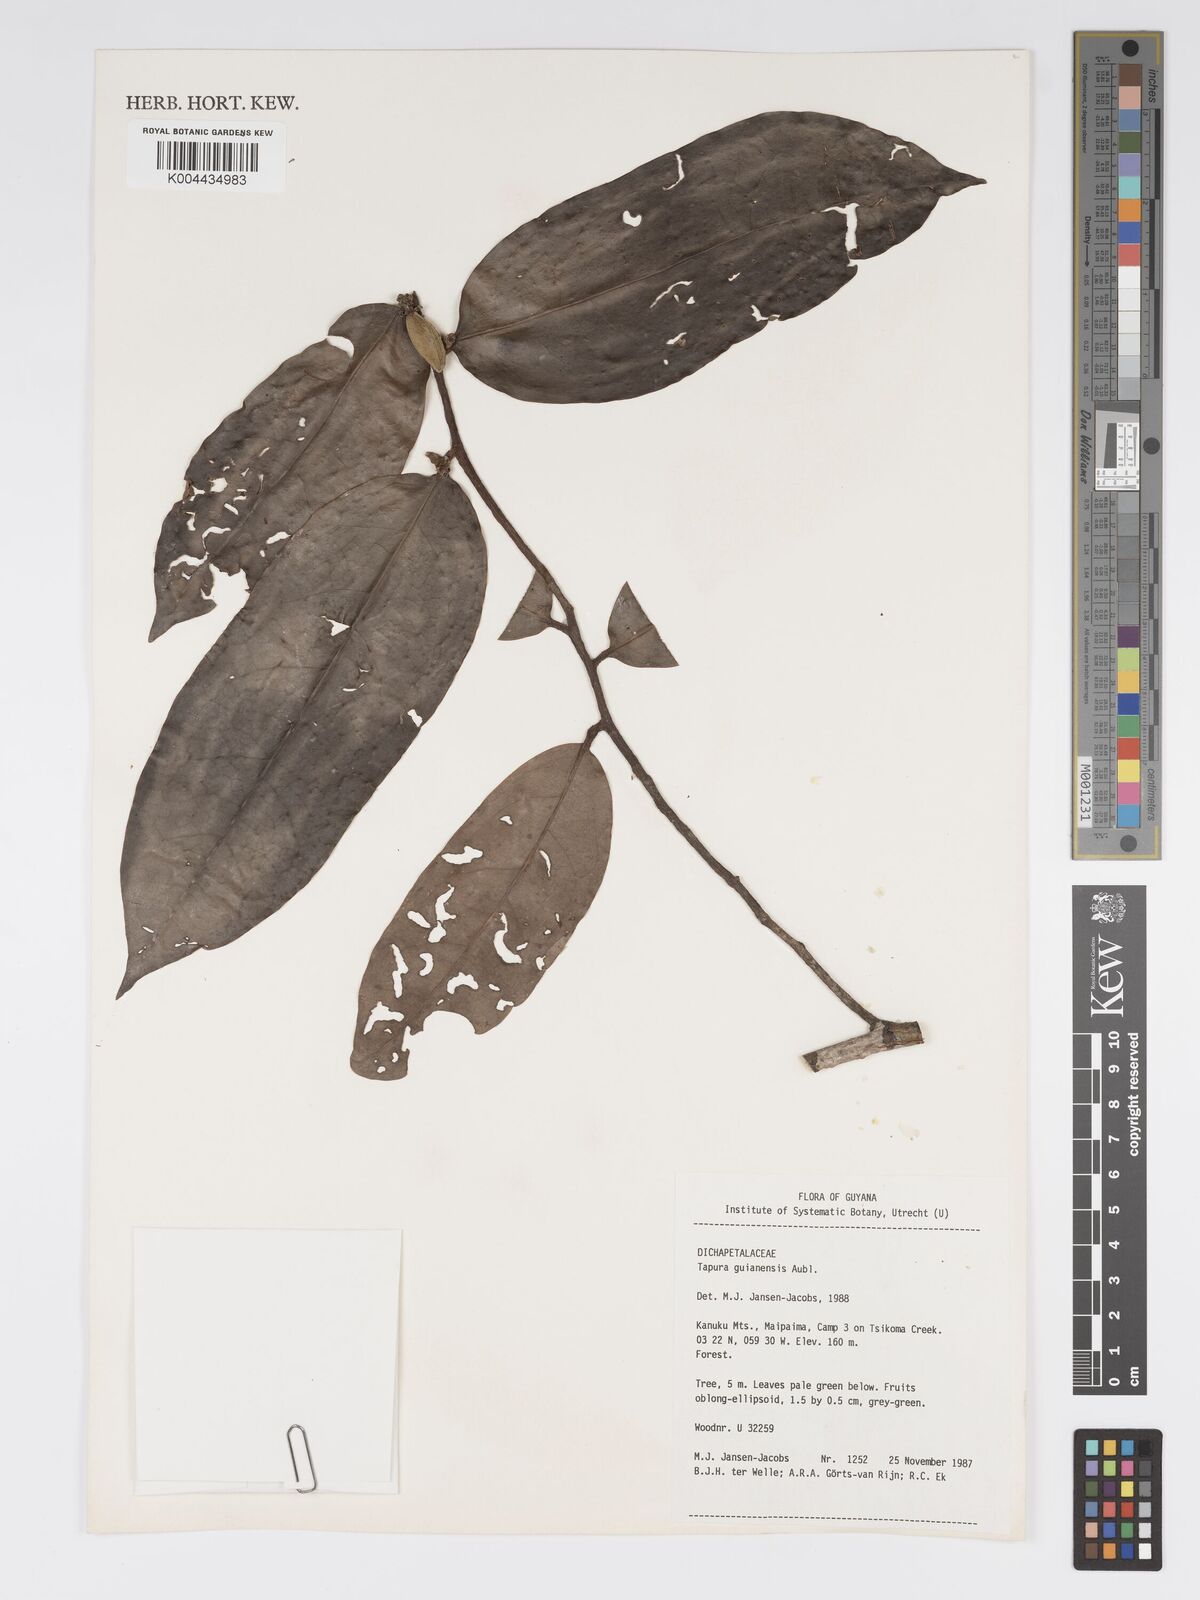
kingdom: Plantae
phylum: Tracheophyta
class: Magnoliopsida
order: Malpighiales
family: Dichapetalaceae
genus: Tapura
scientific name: Tapura guianensis
